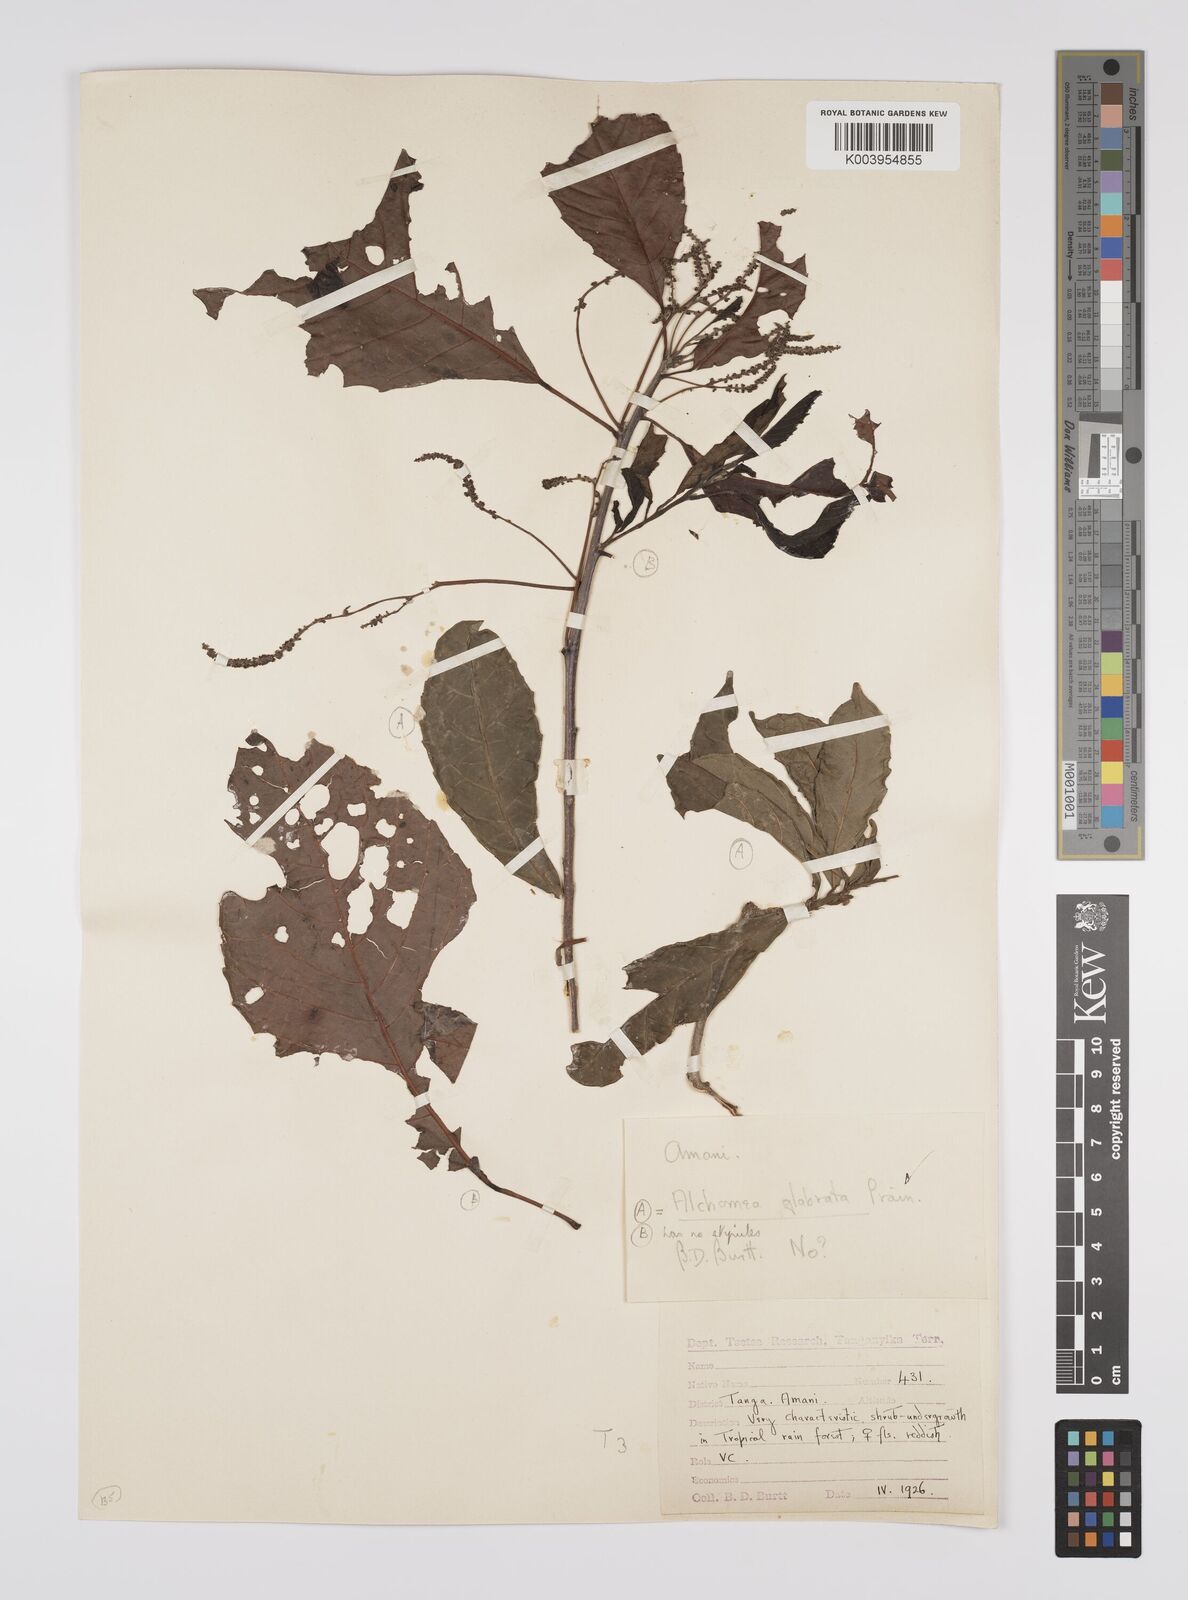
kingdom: Plantae
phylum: Tracheophyta
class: Magnoliopsida
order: Malpighiales
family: Euphorbiaceae
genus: Alchornea
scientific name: Alchornea hirtella
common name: Forest bead-string
